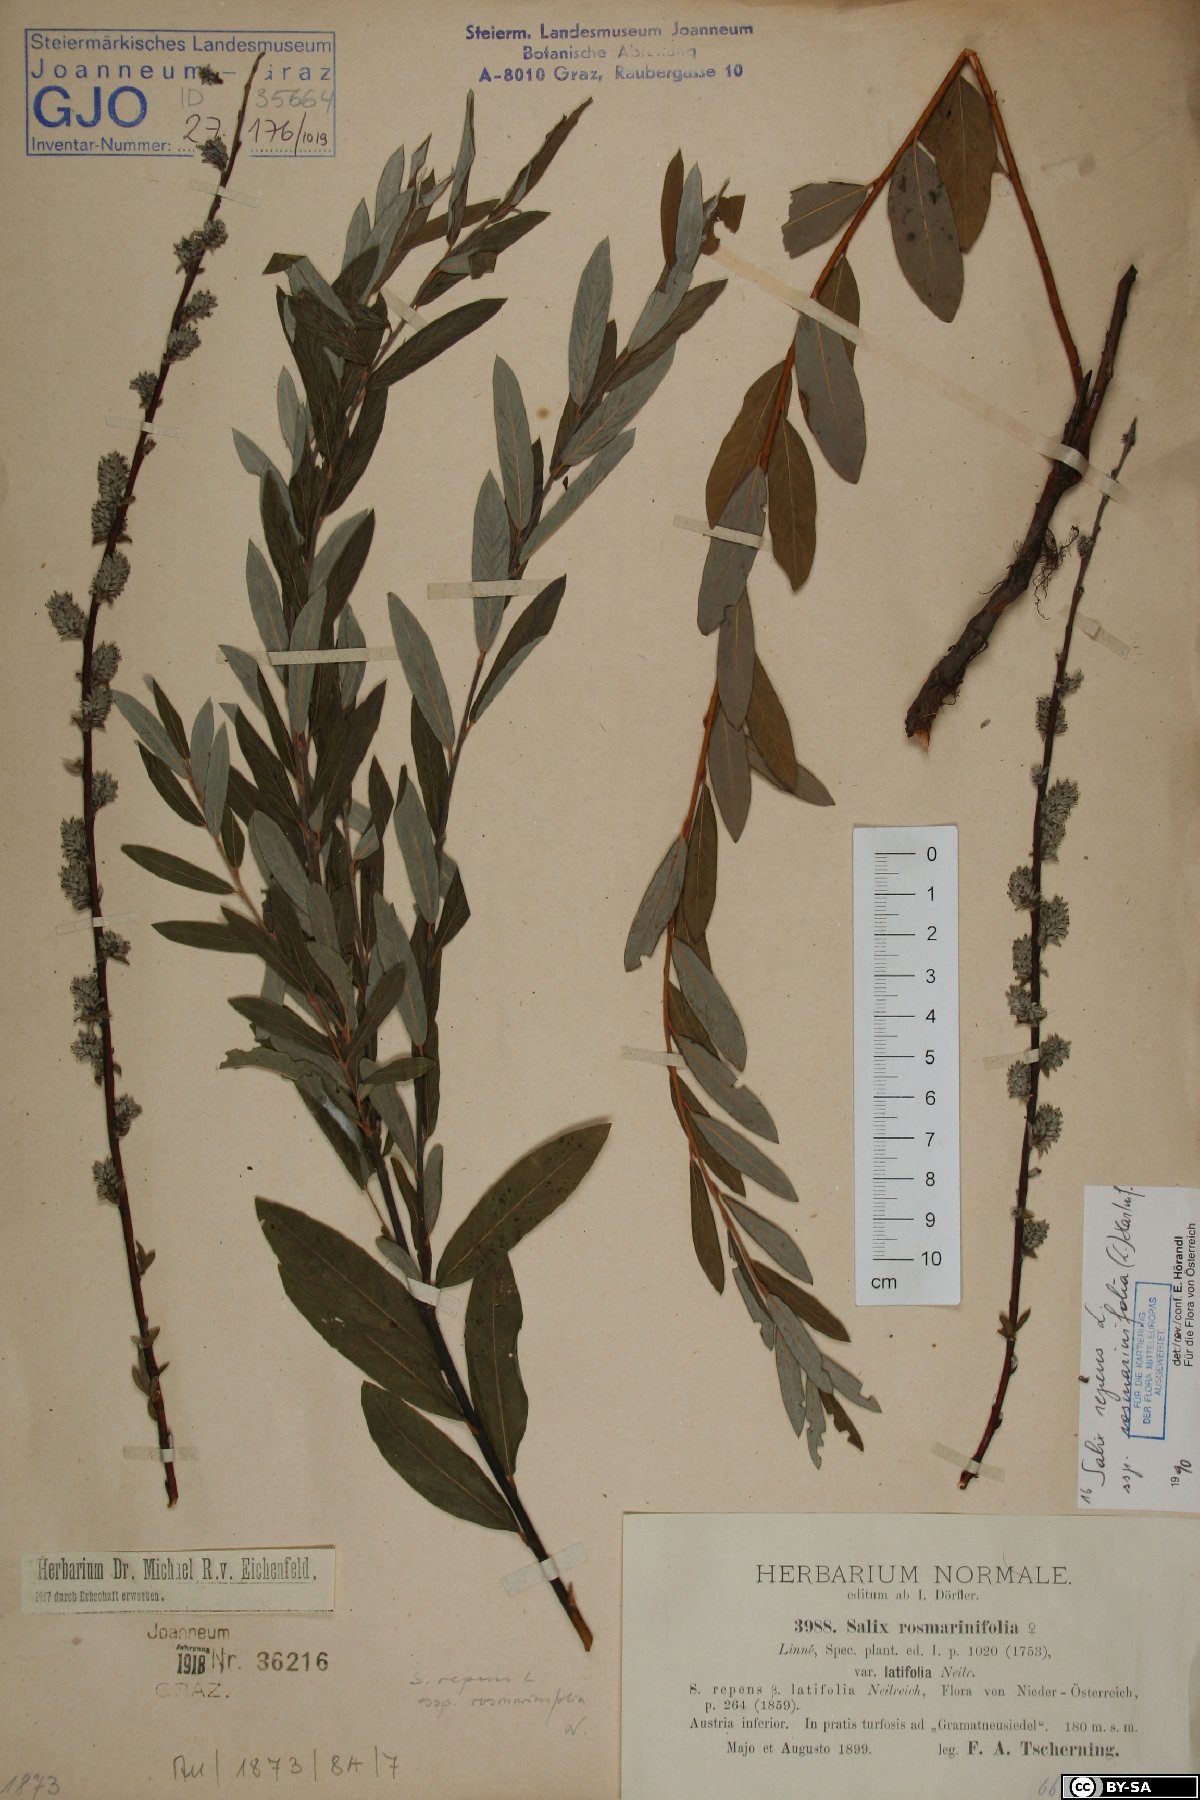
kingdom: Plantae
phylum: Tracheophyta
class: Magnoliopsida
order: Malpighiales
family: Salicaceae
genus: Salix
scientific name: Salix repens
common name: Creeping willow
